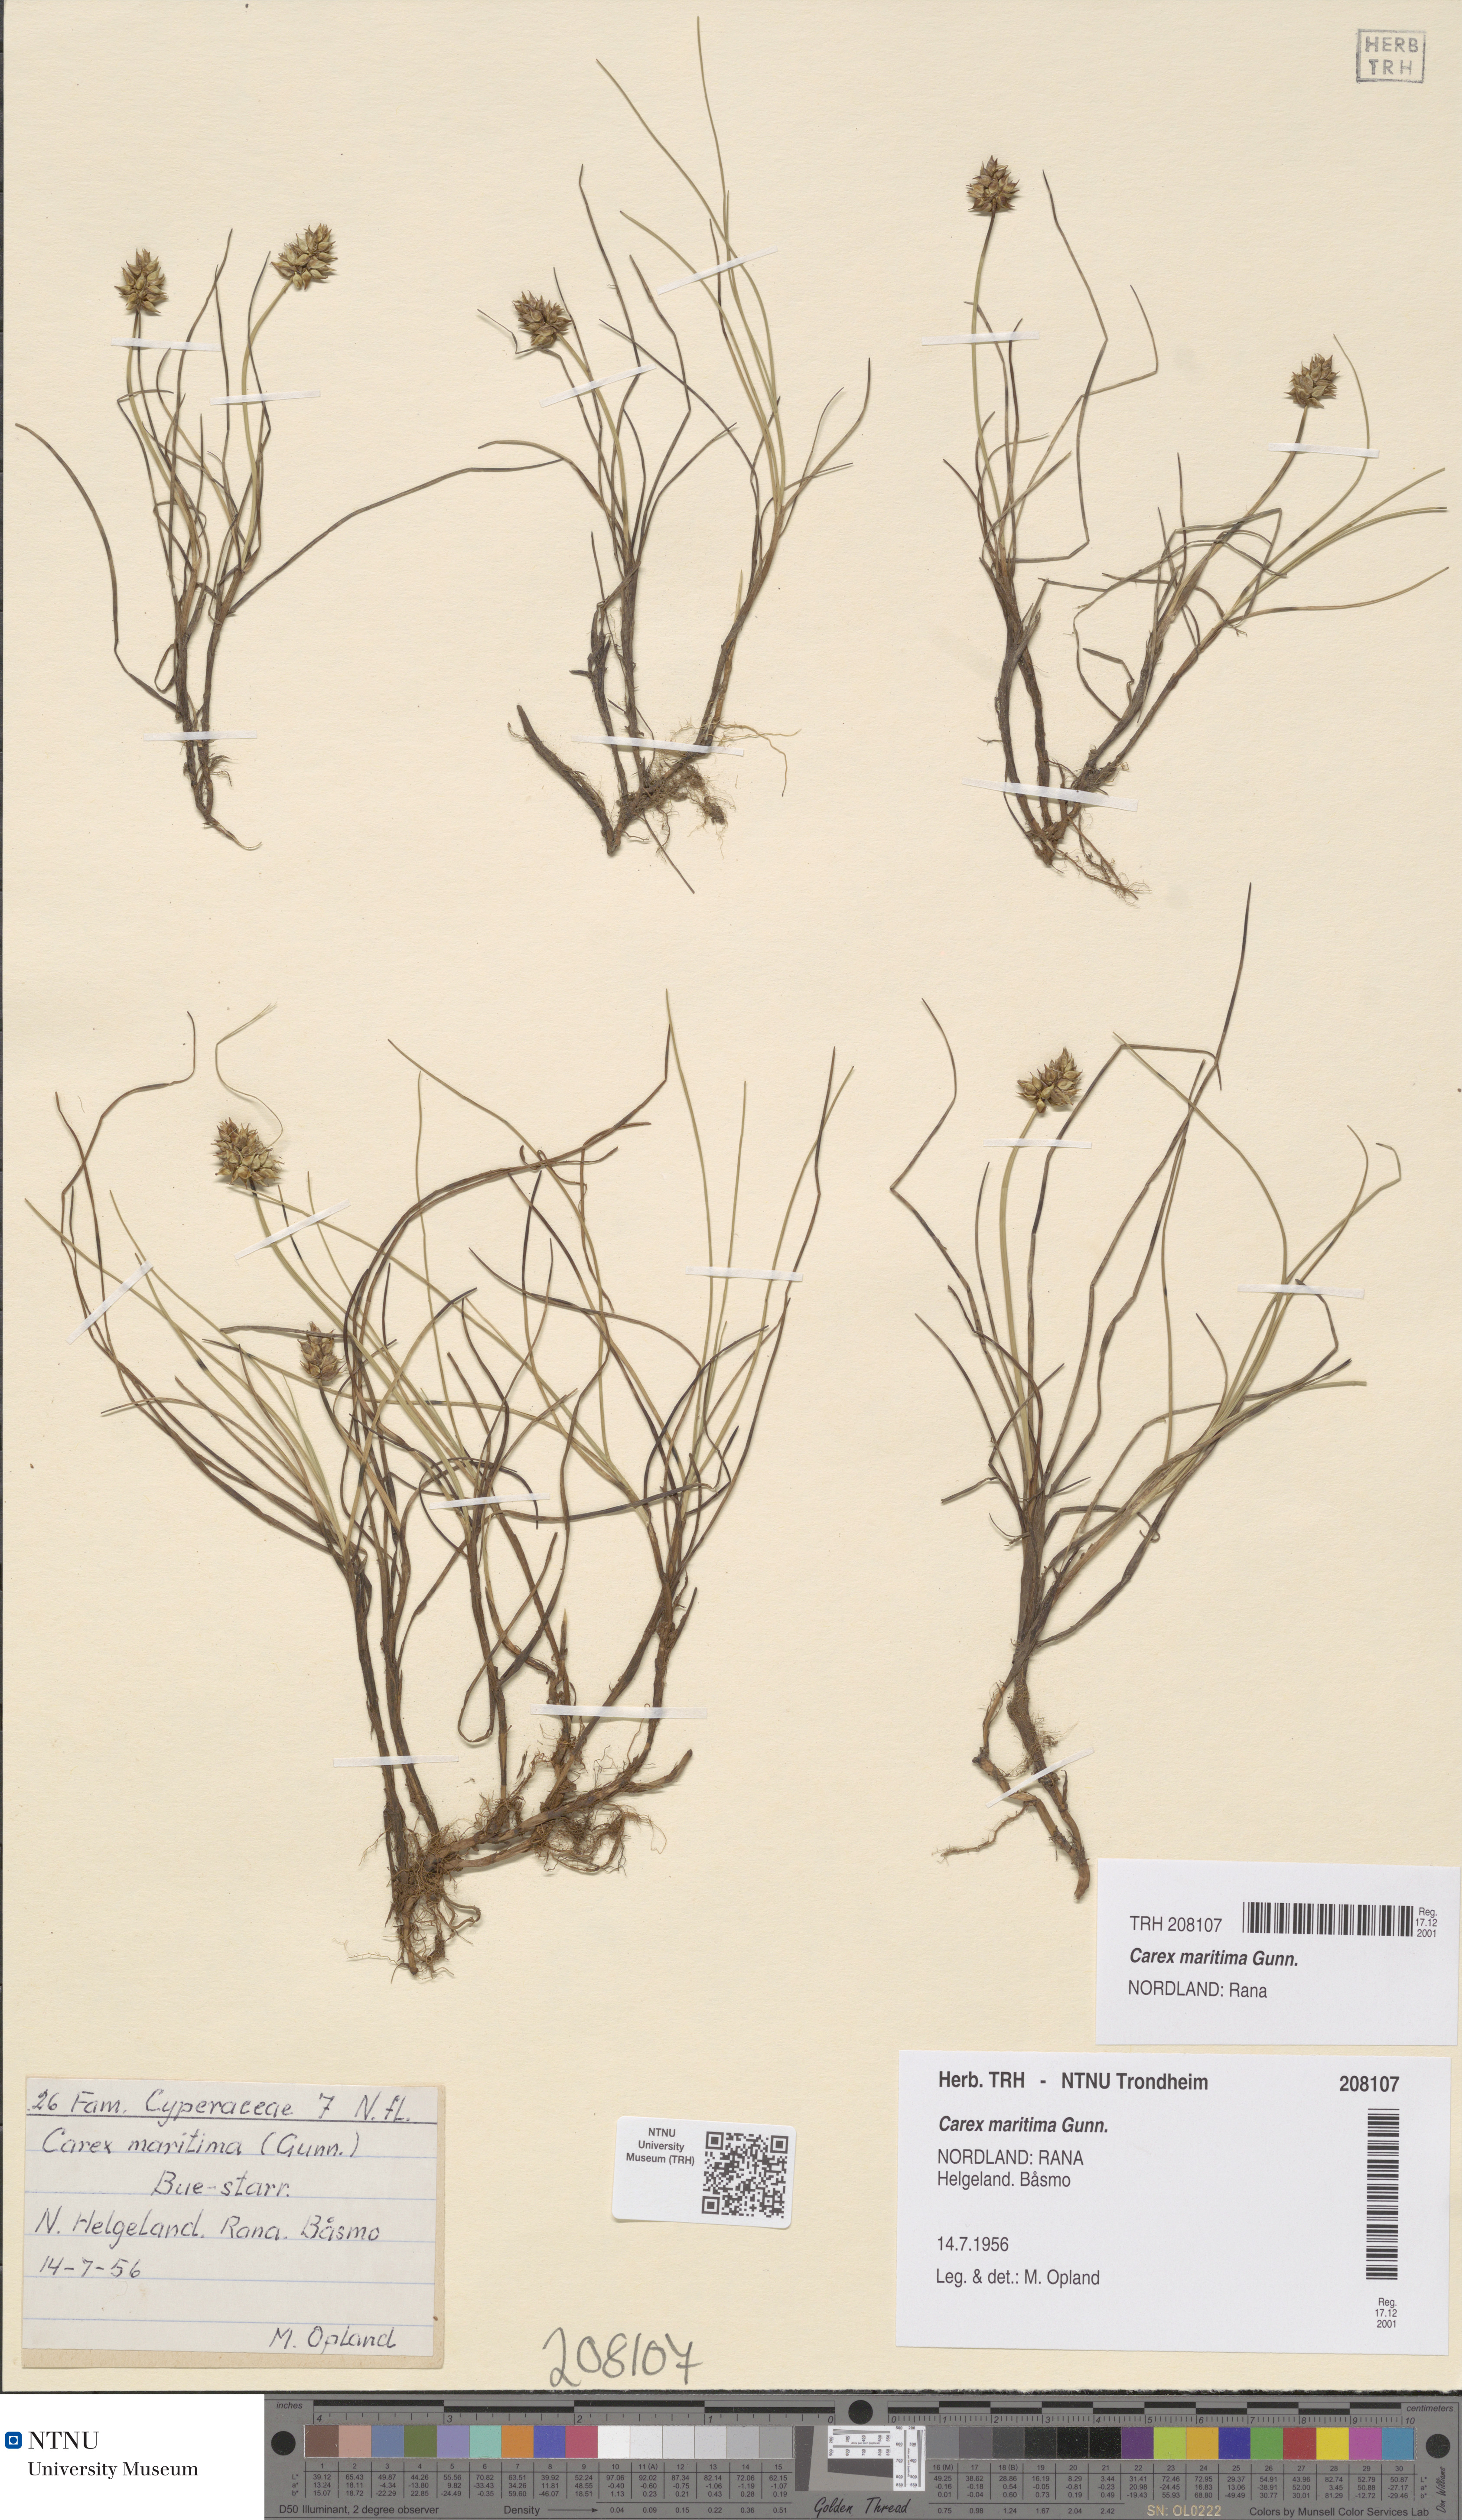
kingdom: Plantae
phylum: Tracheophyta
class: Liliopsida
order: Poales
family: Cyperaceae
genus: Carex
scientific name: Carex maritima
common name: Curved sedge
